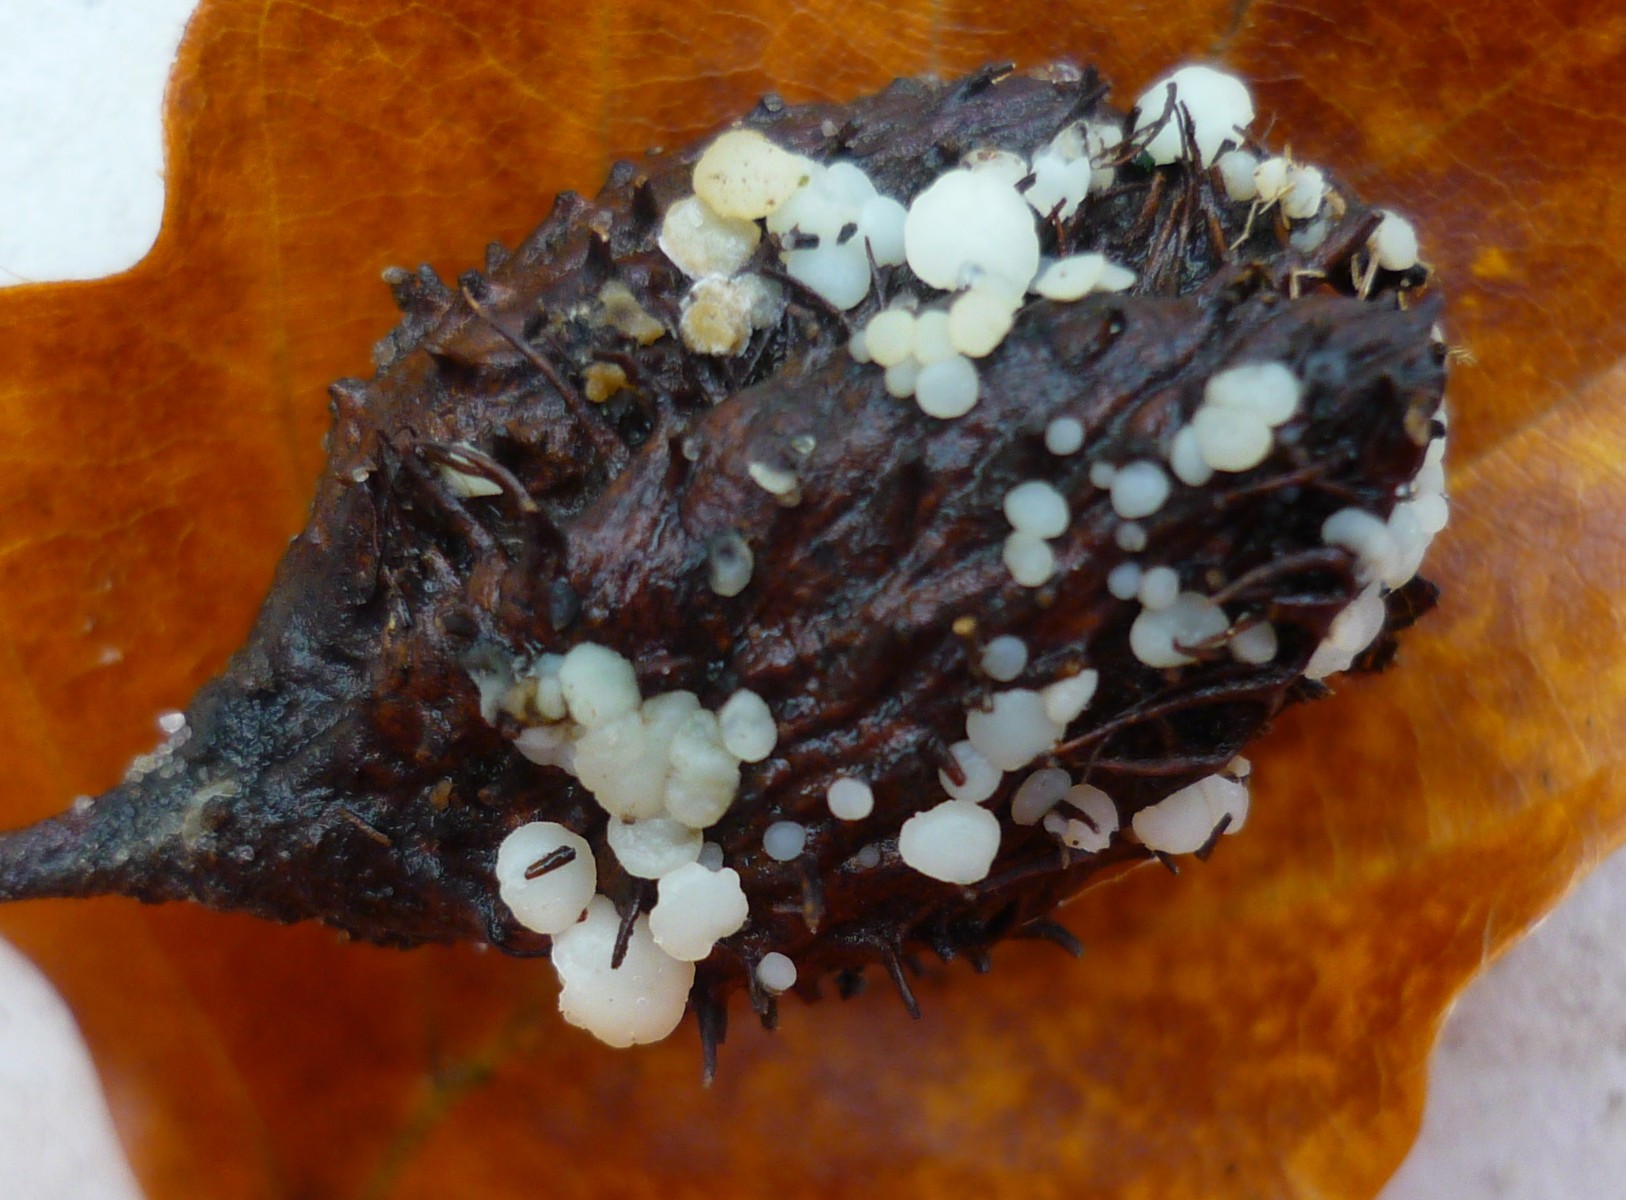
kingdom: Fungi
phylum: Ascomycota
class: Leotiomycetes
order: Helotiales
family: Helotiaceae
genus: Hymenoscyphus
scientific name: Hymenoscyphus fagineus
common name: vellugtende stilkskive
